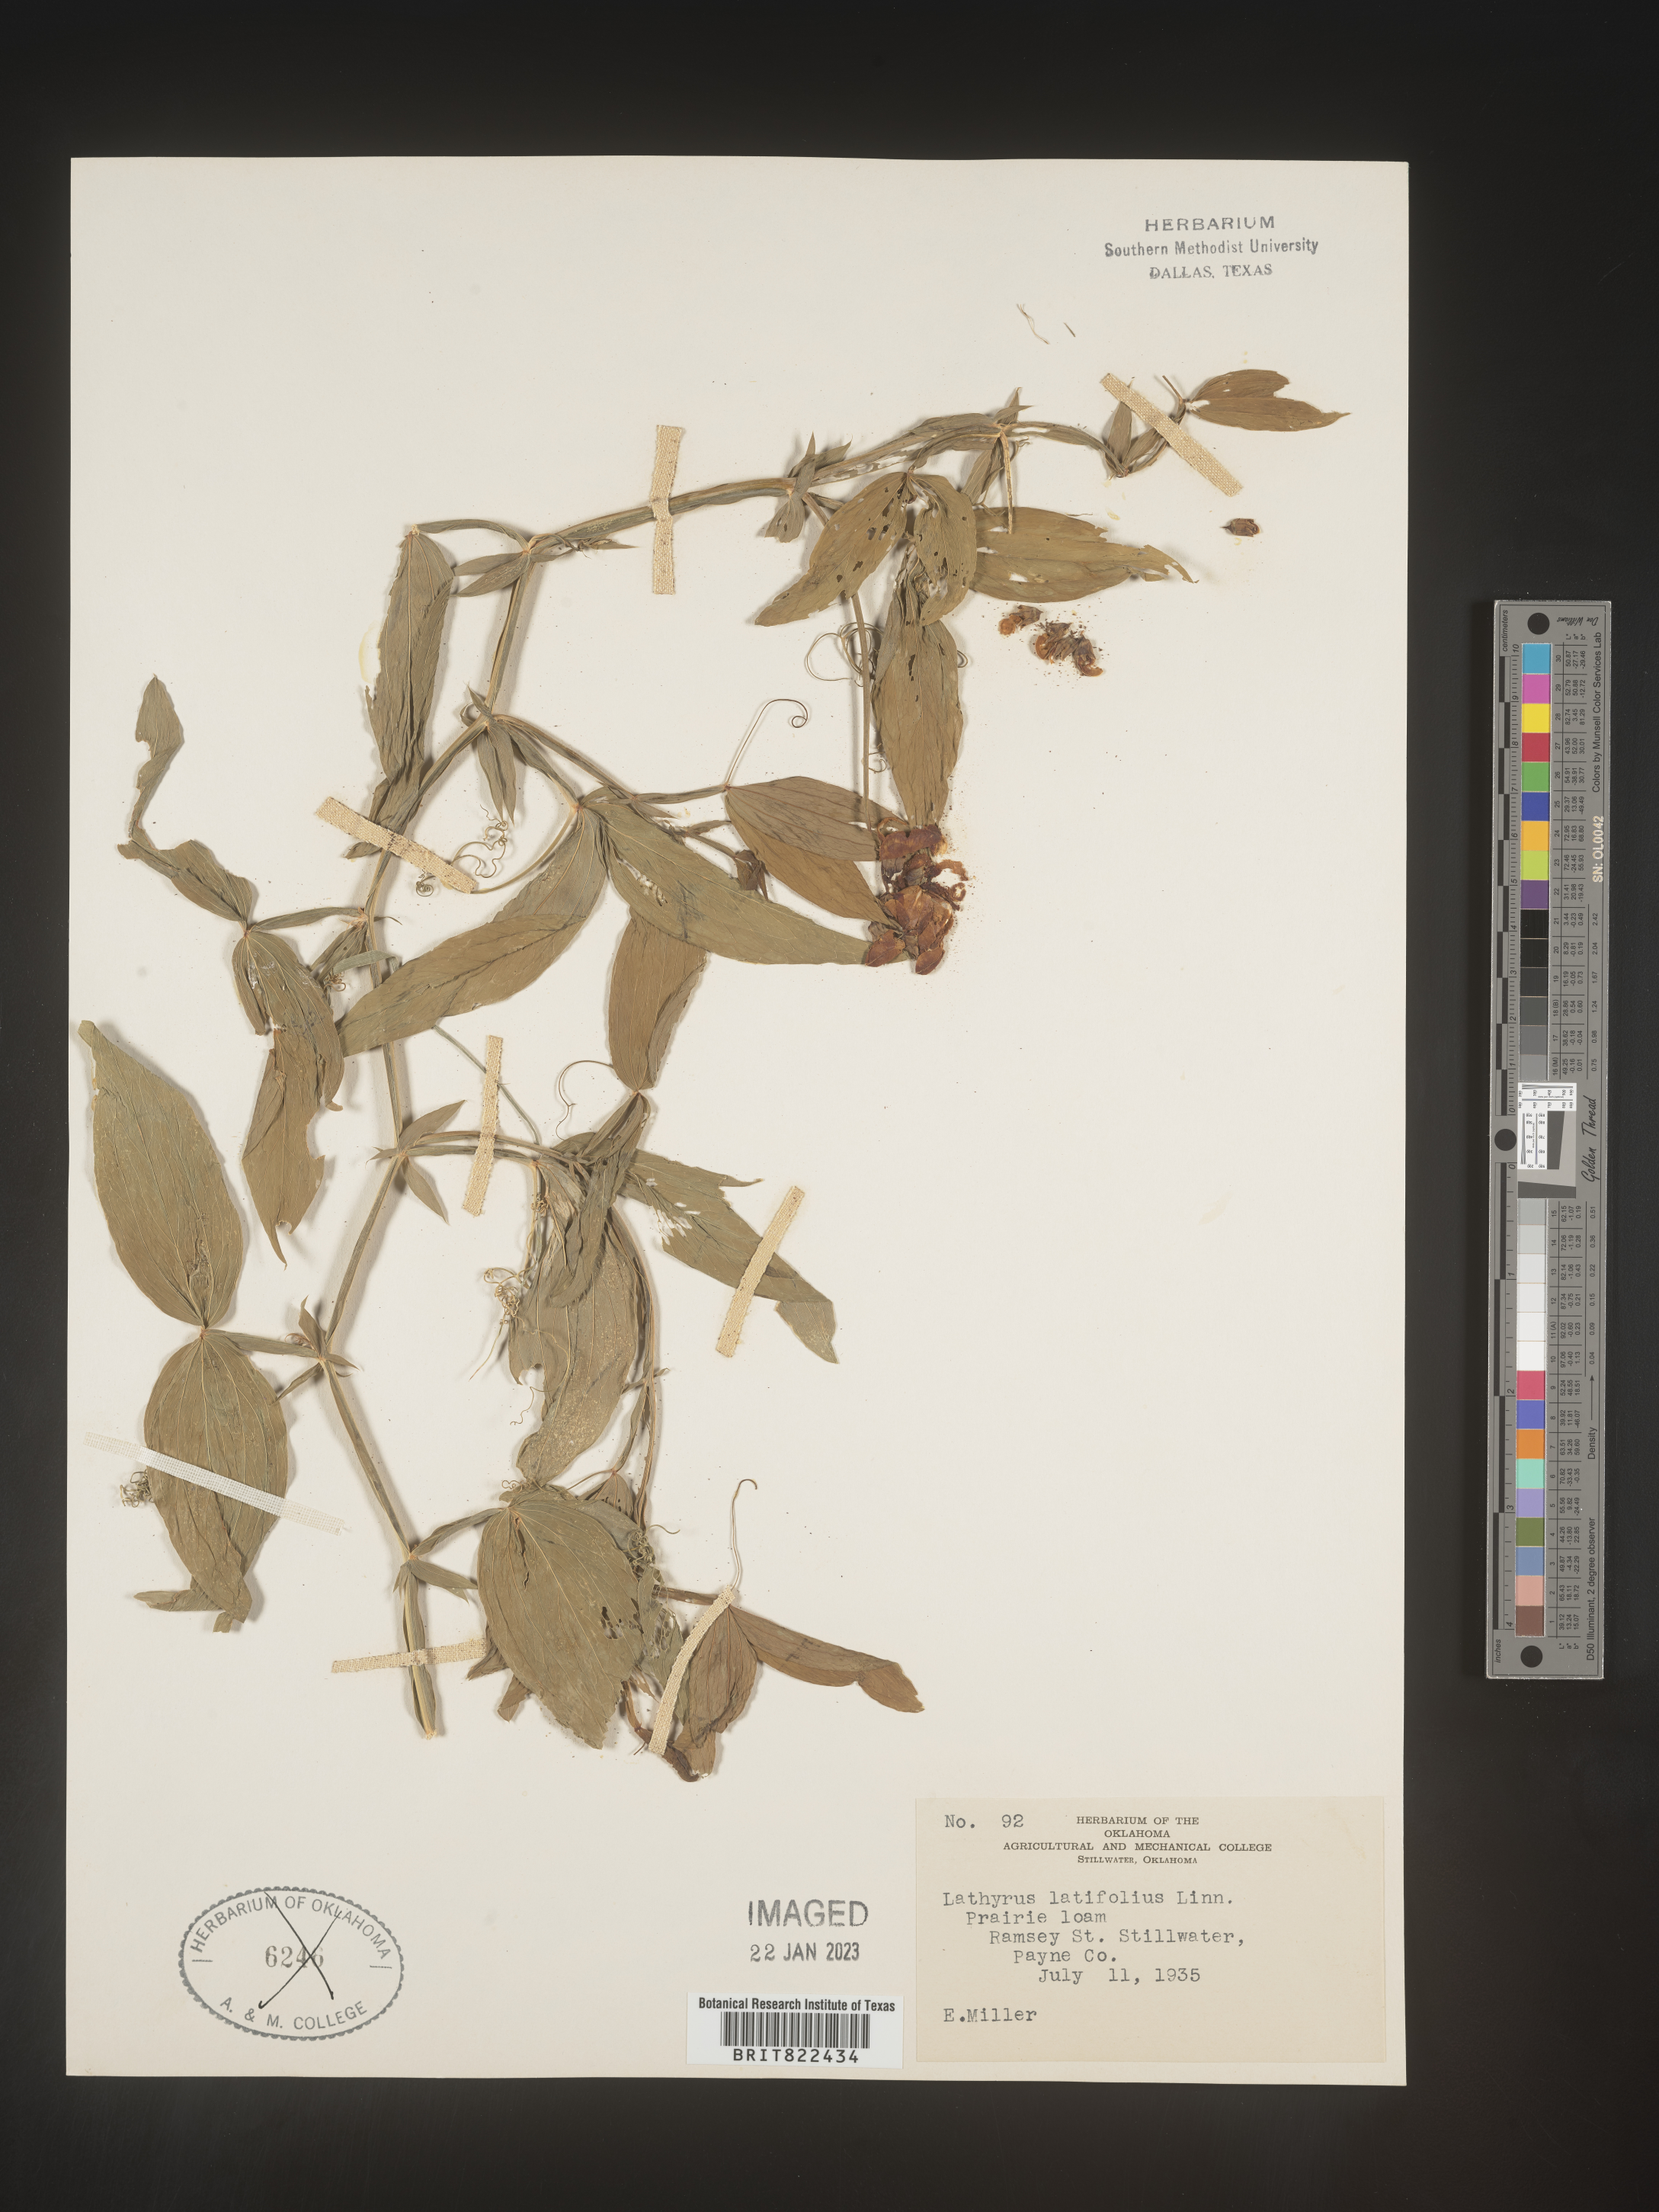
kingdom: Plantae
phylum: Tracheophyta
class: Magnoliopsida
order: Fabales
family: Fabaceae
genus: Lathyrus
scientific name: Lathyrus
